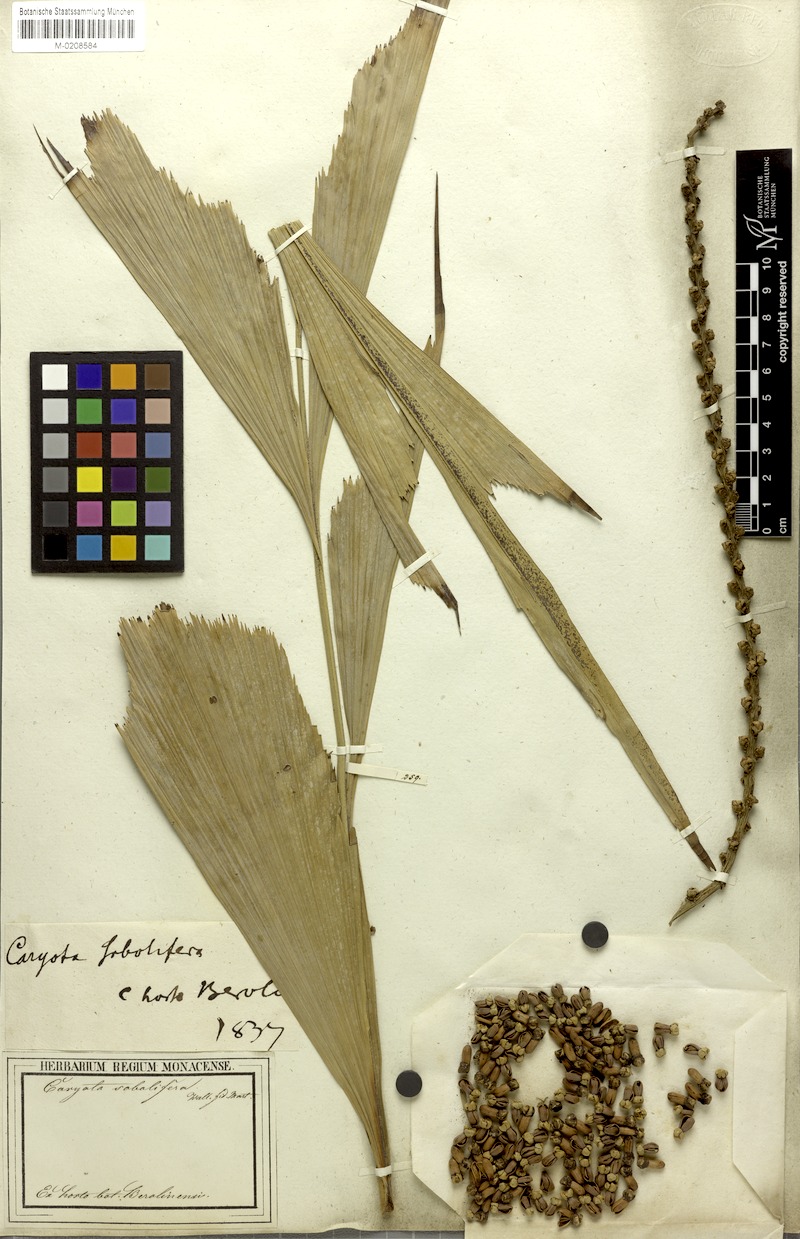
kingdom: Plantae
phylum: Tracheophyta
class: Liliopsida
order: Arecales
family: Arecaceae
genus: Caryota
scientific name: Caryota mitis
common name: Burmese fishtail palm
